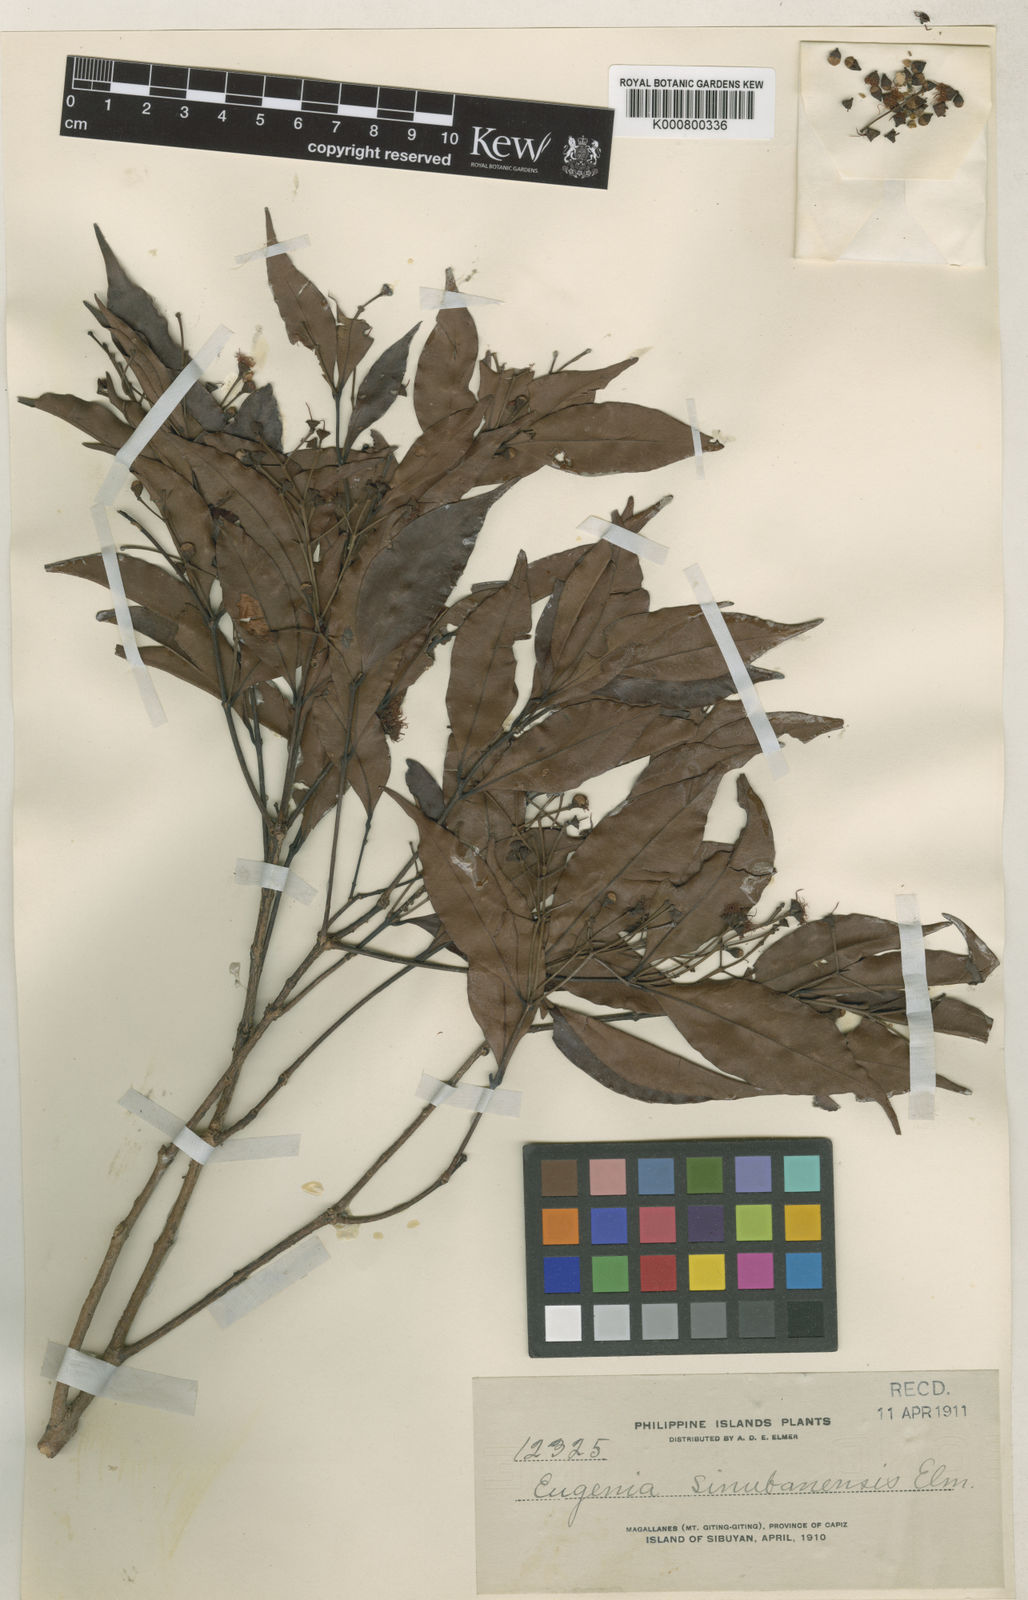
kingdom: Plantae
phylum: Tracheophyta
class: Magnoliopsida
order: Myrtales
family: Myrtaceae
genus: Syzygium
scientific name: Syzygium
